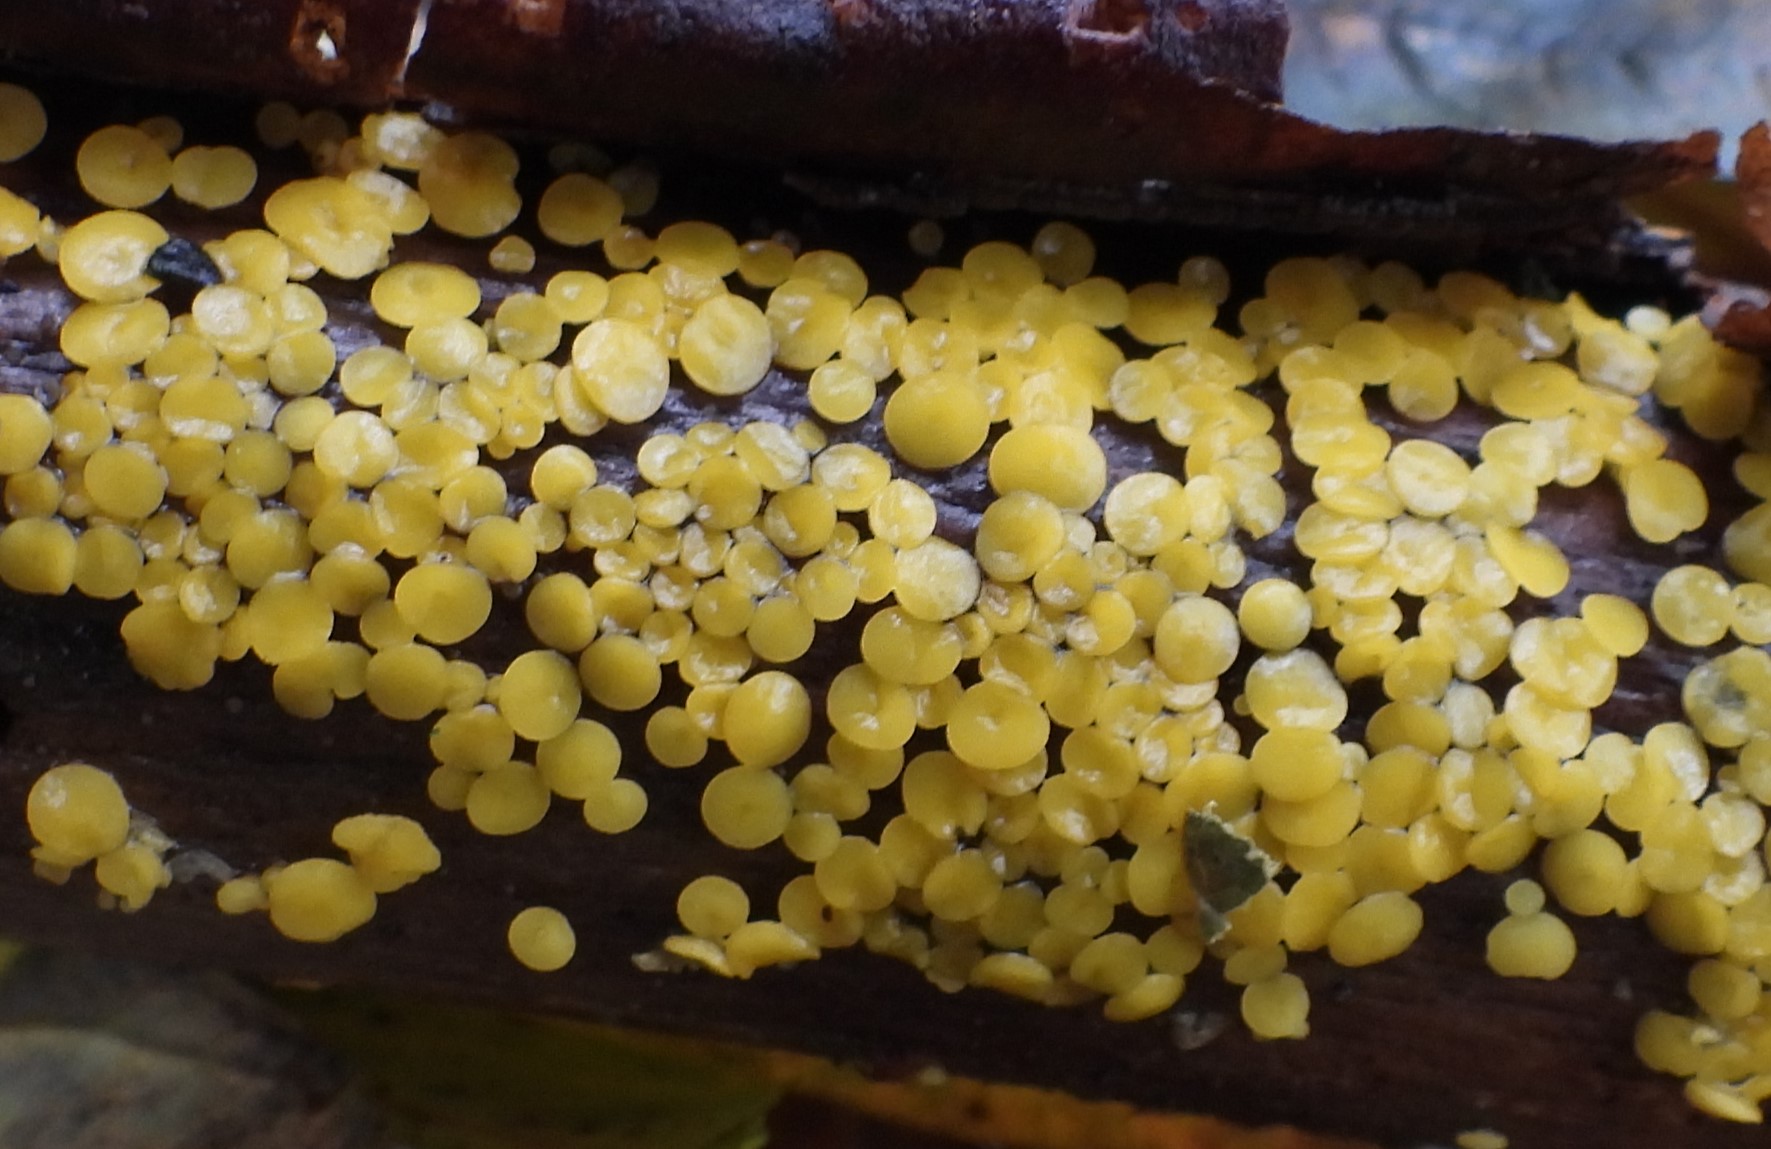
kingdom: Fungi
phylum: Ascomycota
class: Leotiomycetes
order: Helotiales
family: Pezizellaceae
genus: Calycina
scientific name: Calycina citrina
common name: almindelig gulskive
